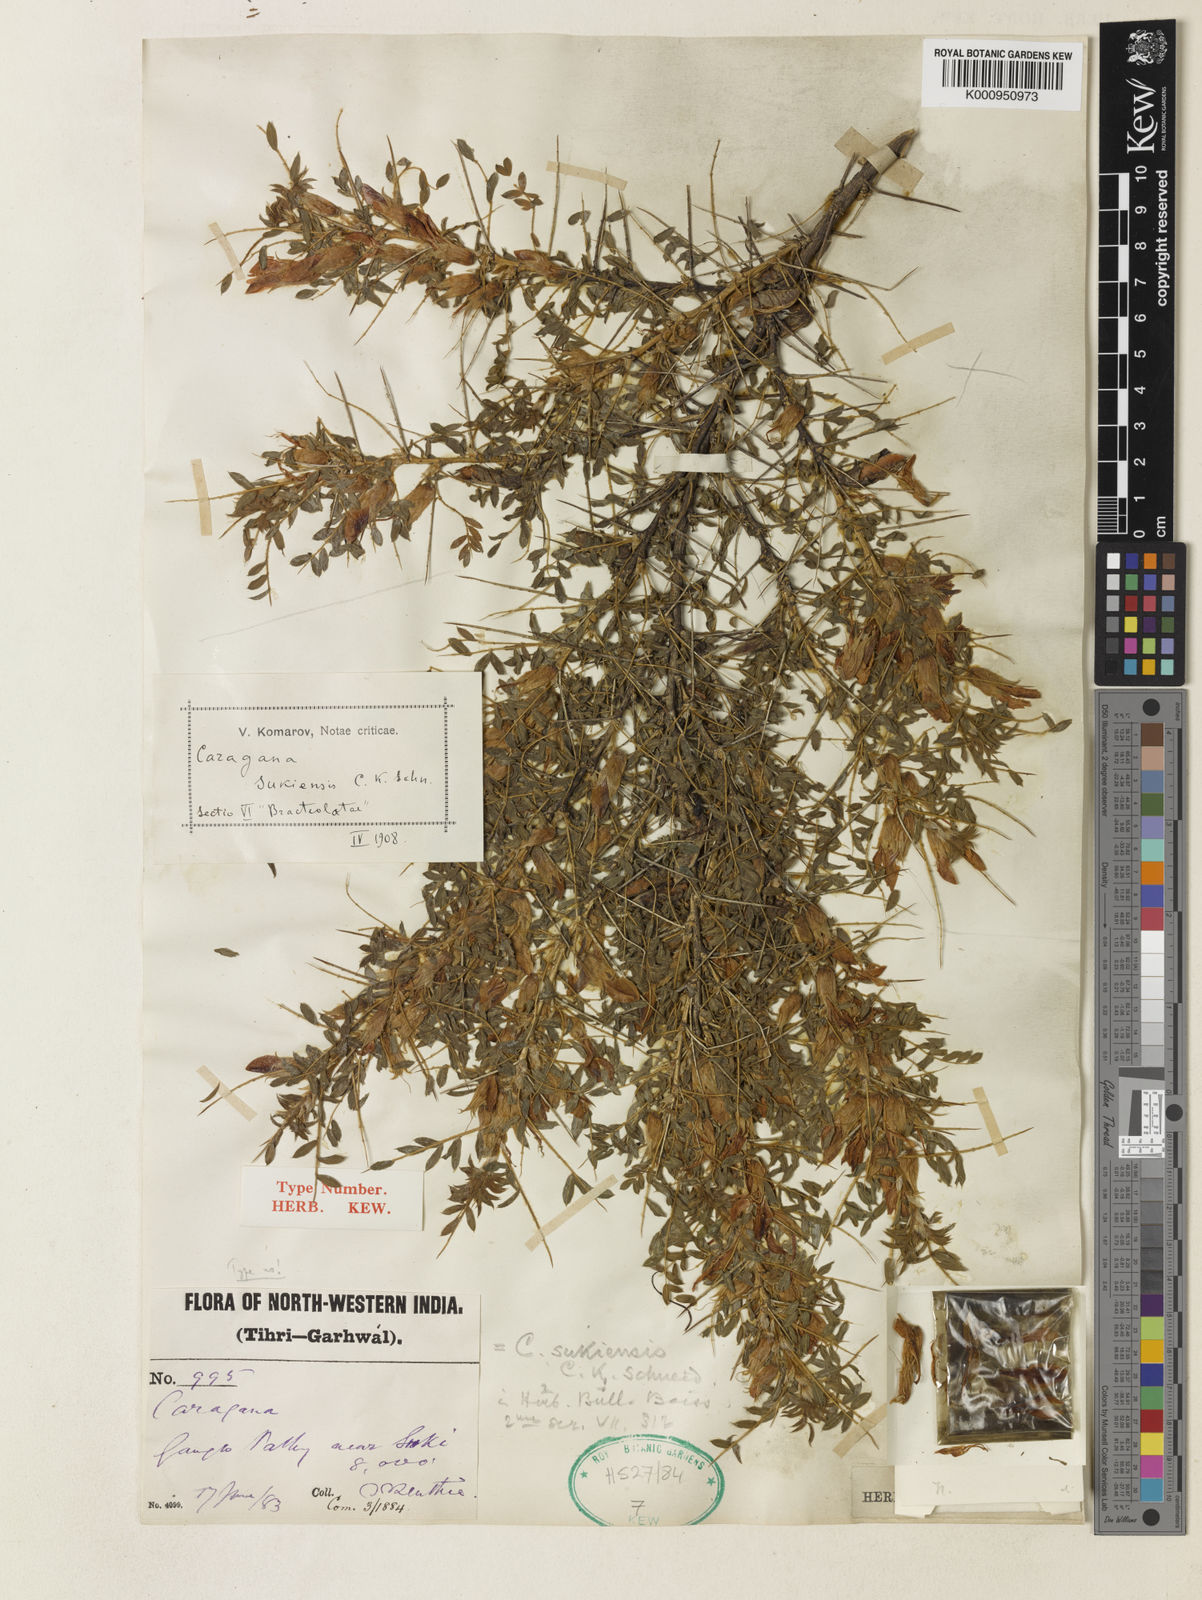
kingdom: Plantae
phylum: Tracheophyta
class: Magnoliopsida
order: Fabales
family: Fabaceae
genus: Caragana
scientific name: Caragana jubata
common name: Shag-spine peashrub
